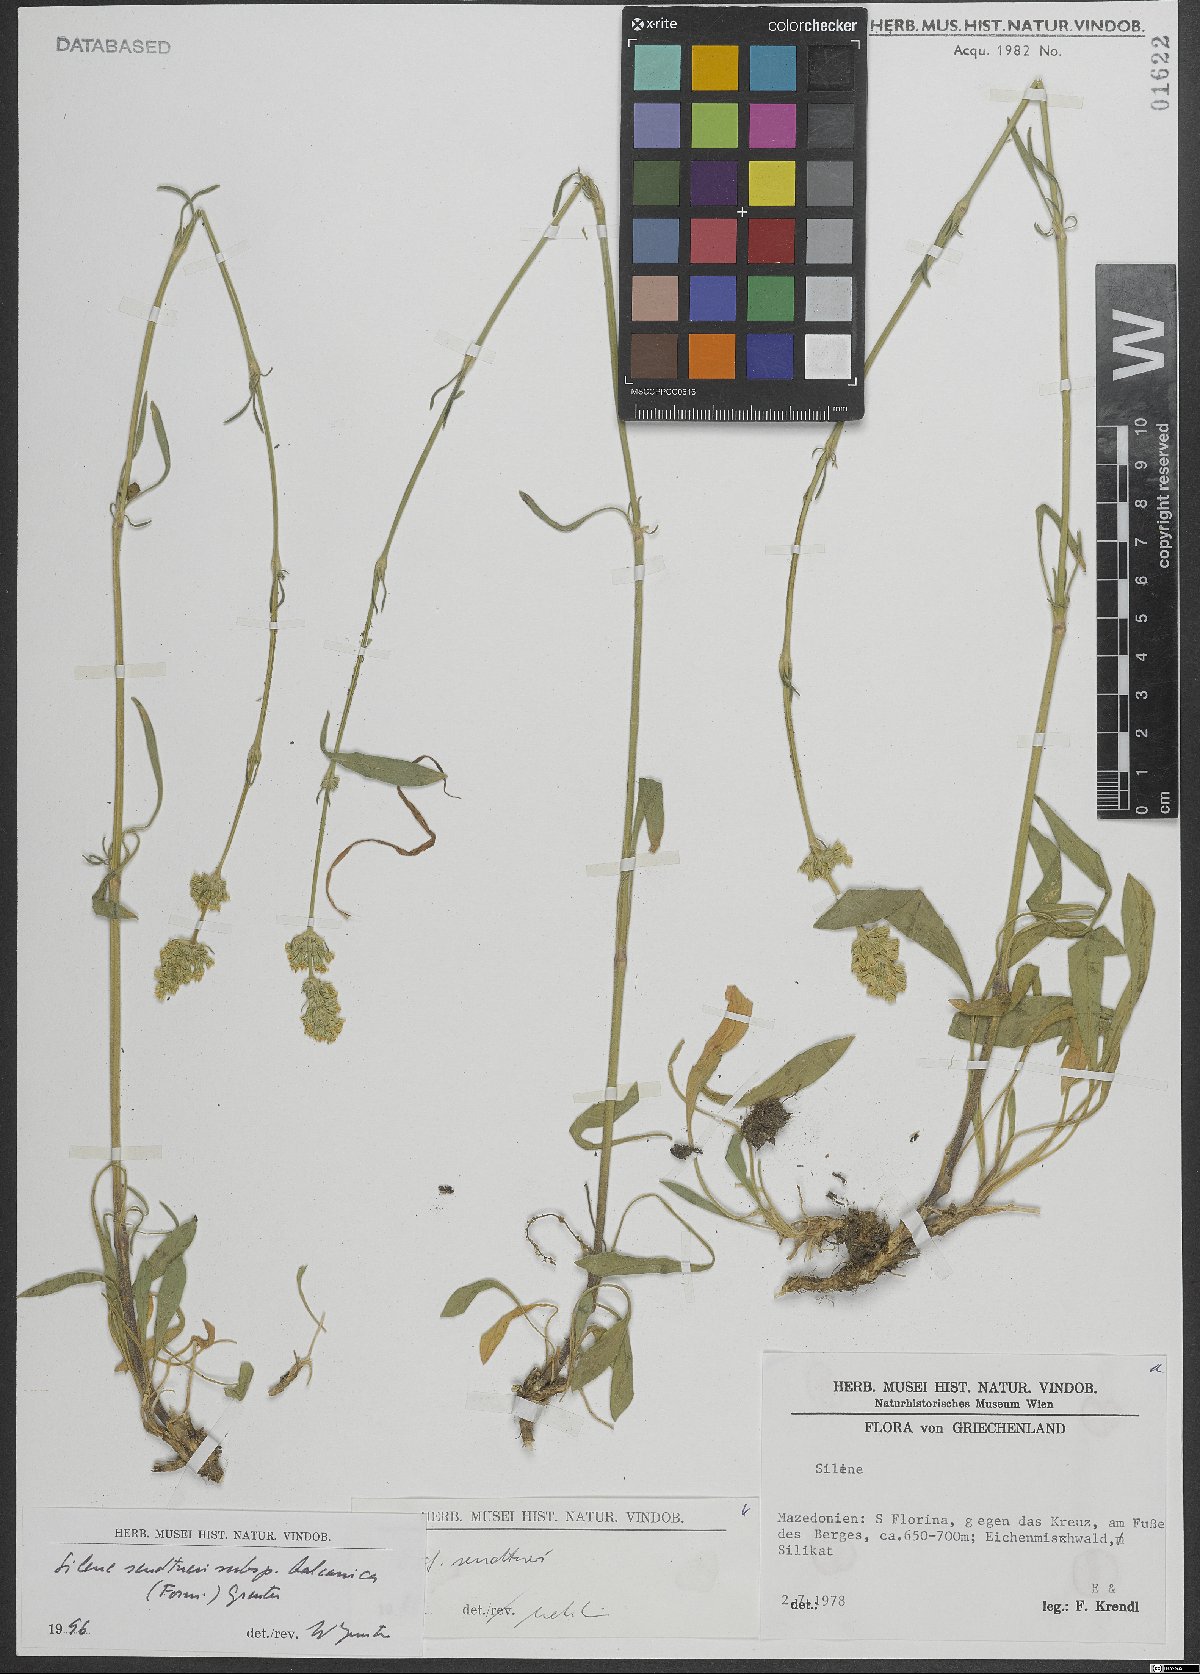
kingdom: Plantae
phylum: Tracheophyta
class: Magnoliopsida
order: Caryophyllales
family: Caryophyllaceae
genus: Silene
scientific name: Silene sendtneri
